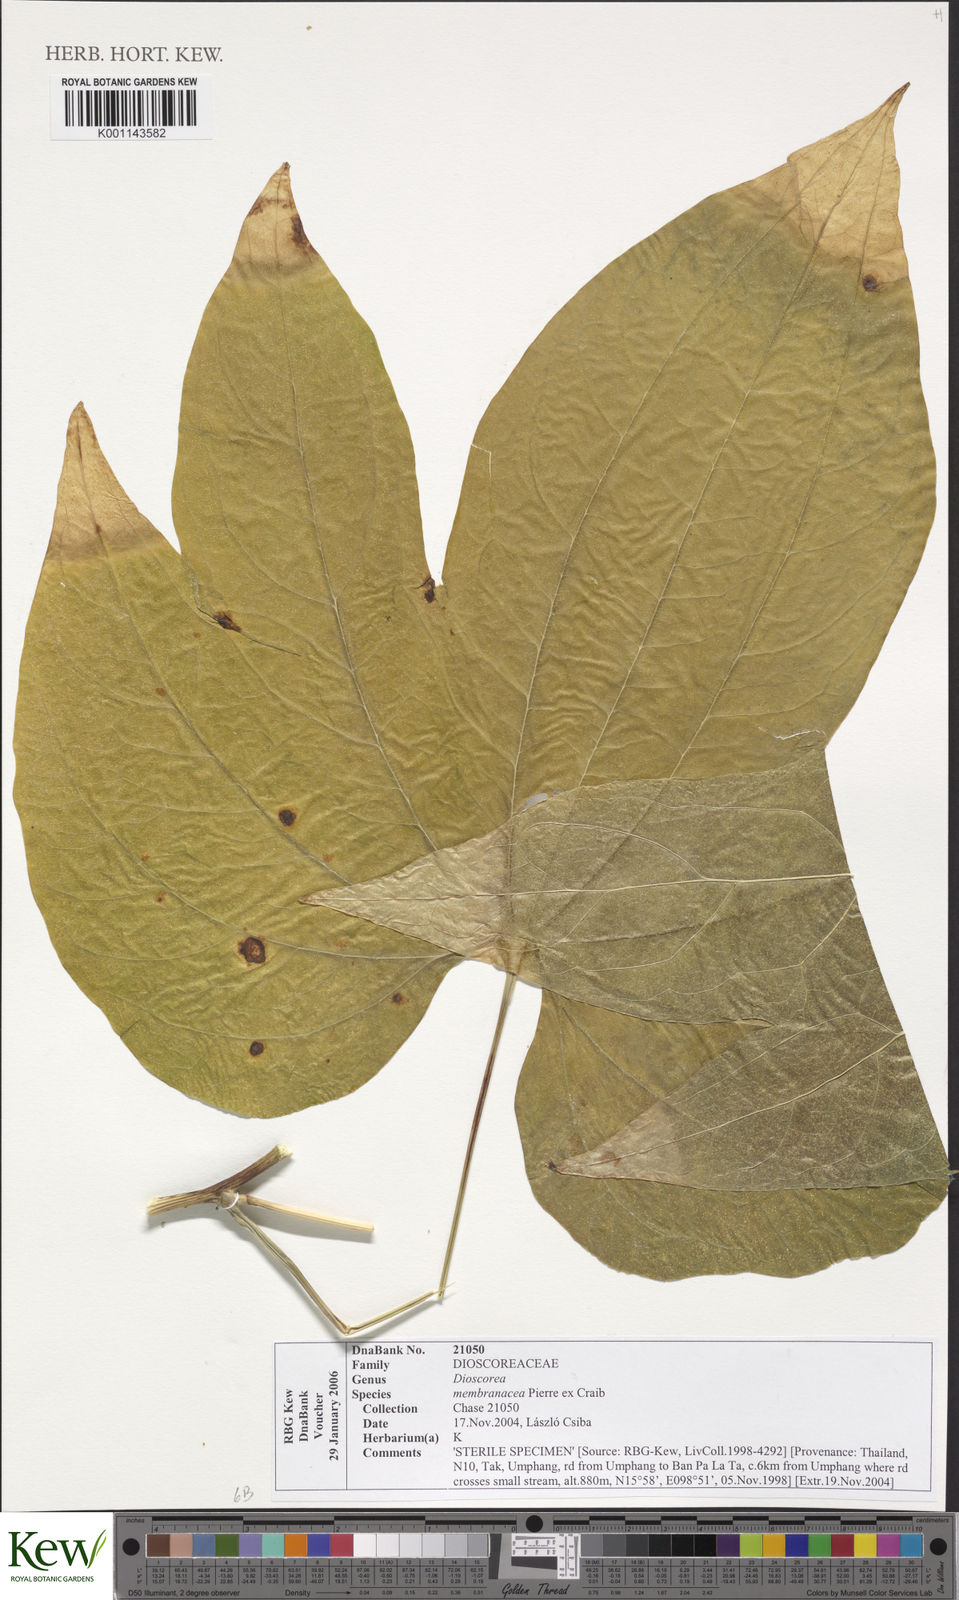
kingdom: Plantae
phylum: Tracheophyta
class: Liliopsida
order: Dioscoreales
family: Dioscoreaceae
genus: Dioscorea
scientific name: Dioscorea
